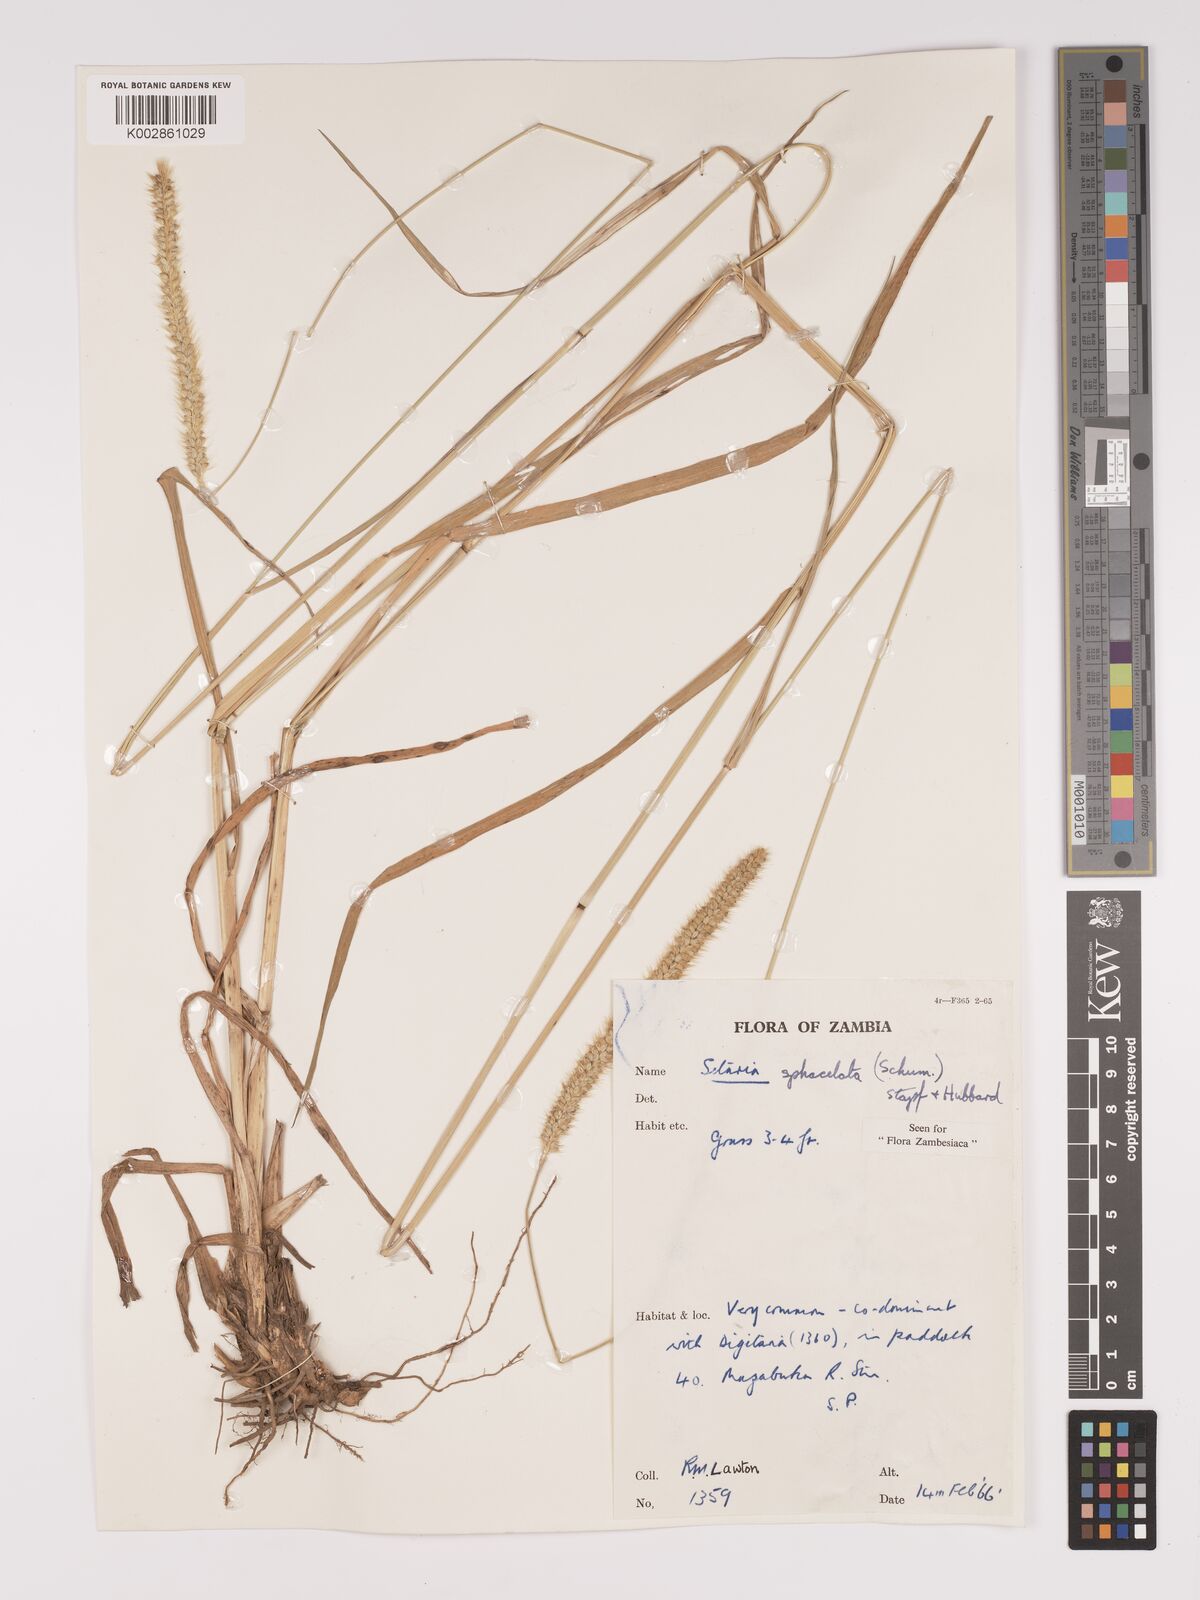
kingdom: Plantae
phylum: Tracheophyta
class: Liliopsida
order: Poales
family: Poaceae
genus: Setaria
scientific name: Setaria sphacelata
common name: African bristlegrass
